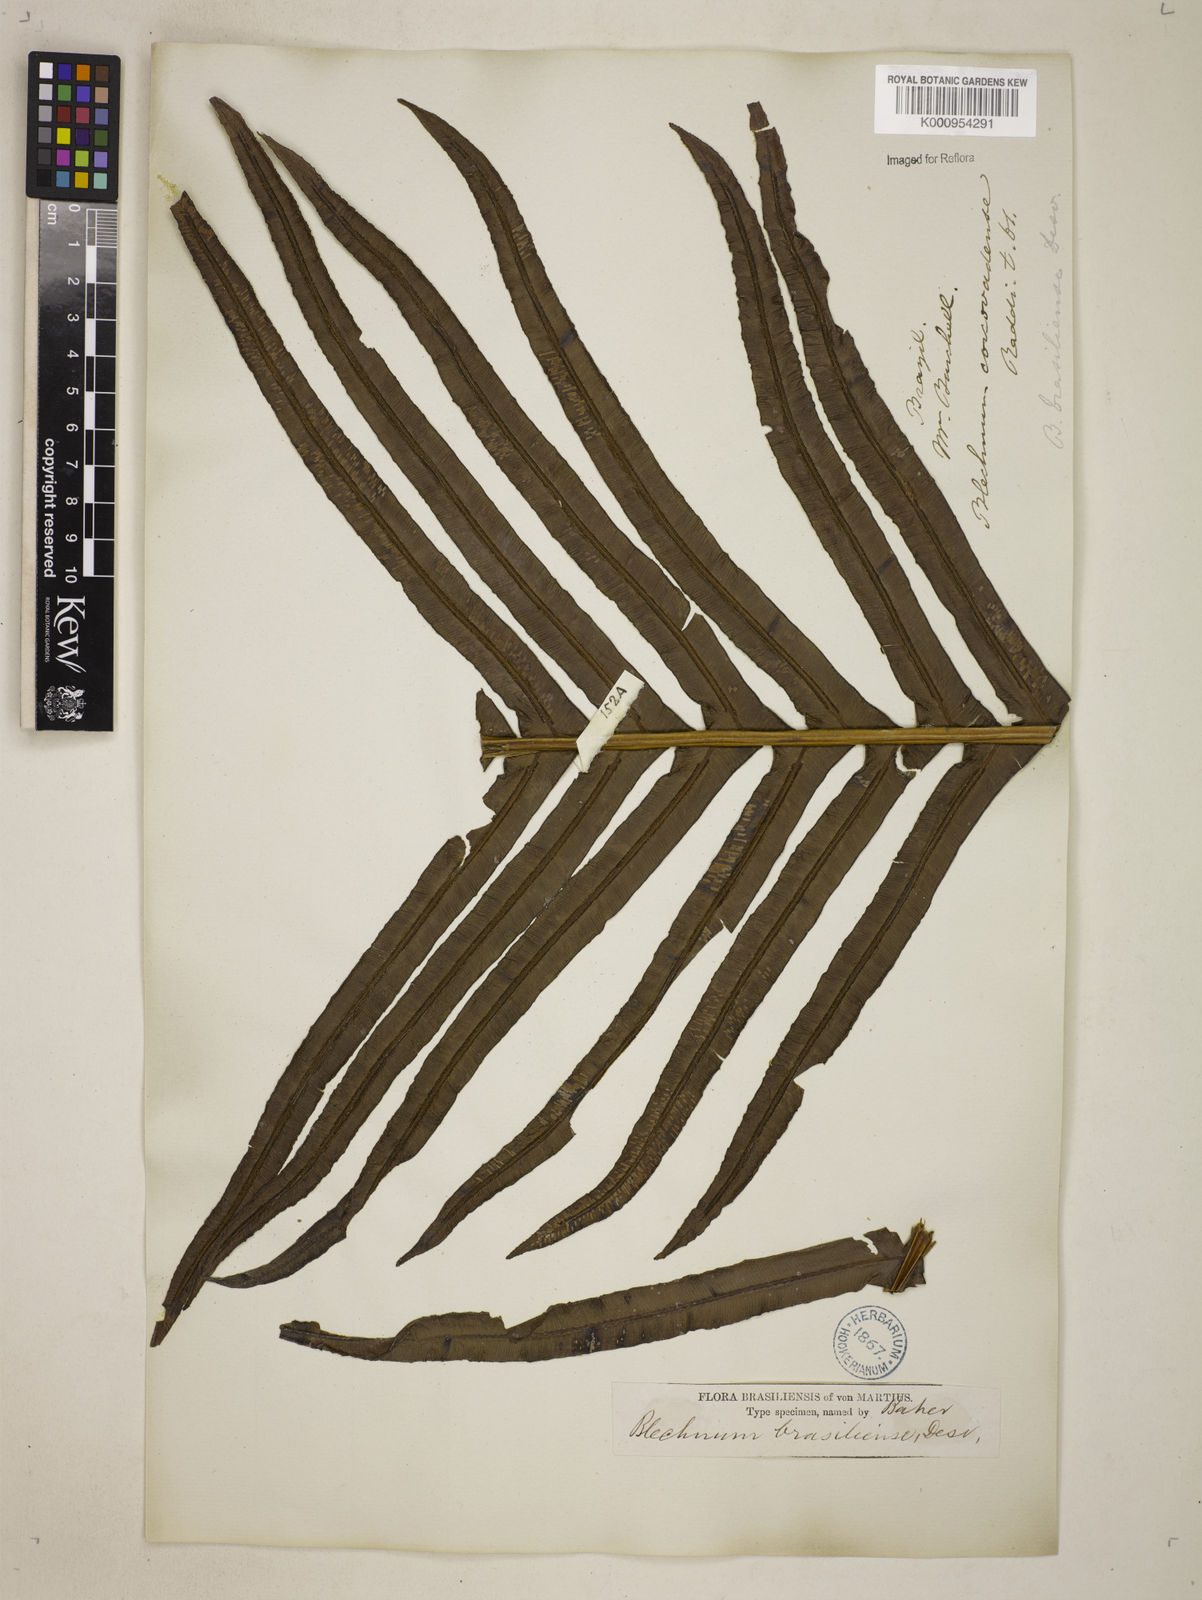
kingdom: Plantae
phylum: Tracheophyta
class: Polypodiopsida
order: Polypodiales
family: Blechnaceae
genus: Neoblechnum
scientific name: Neoblechnum brasiliense
